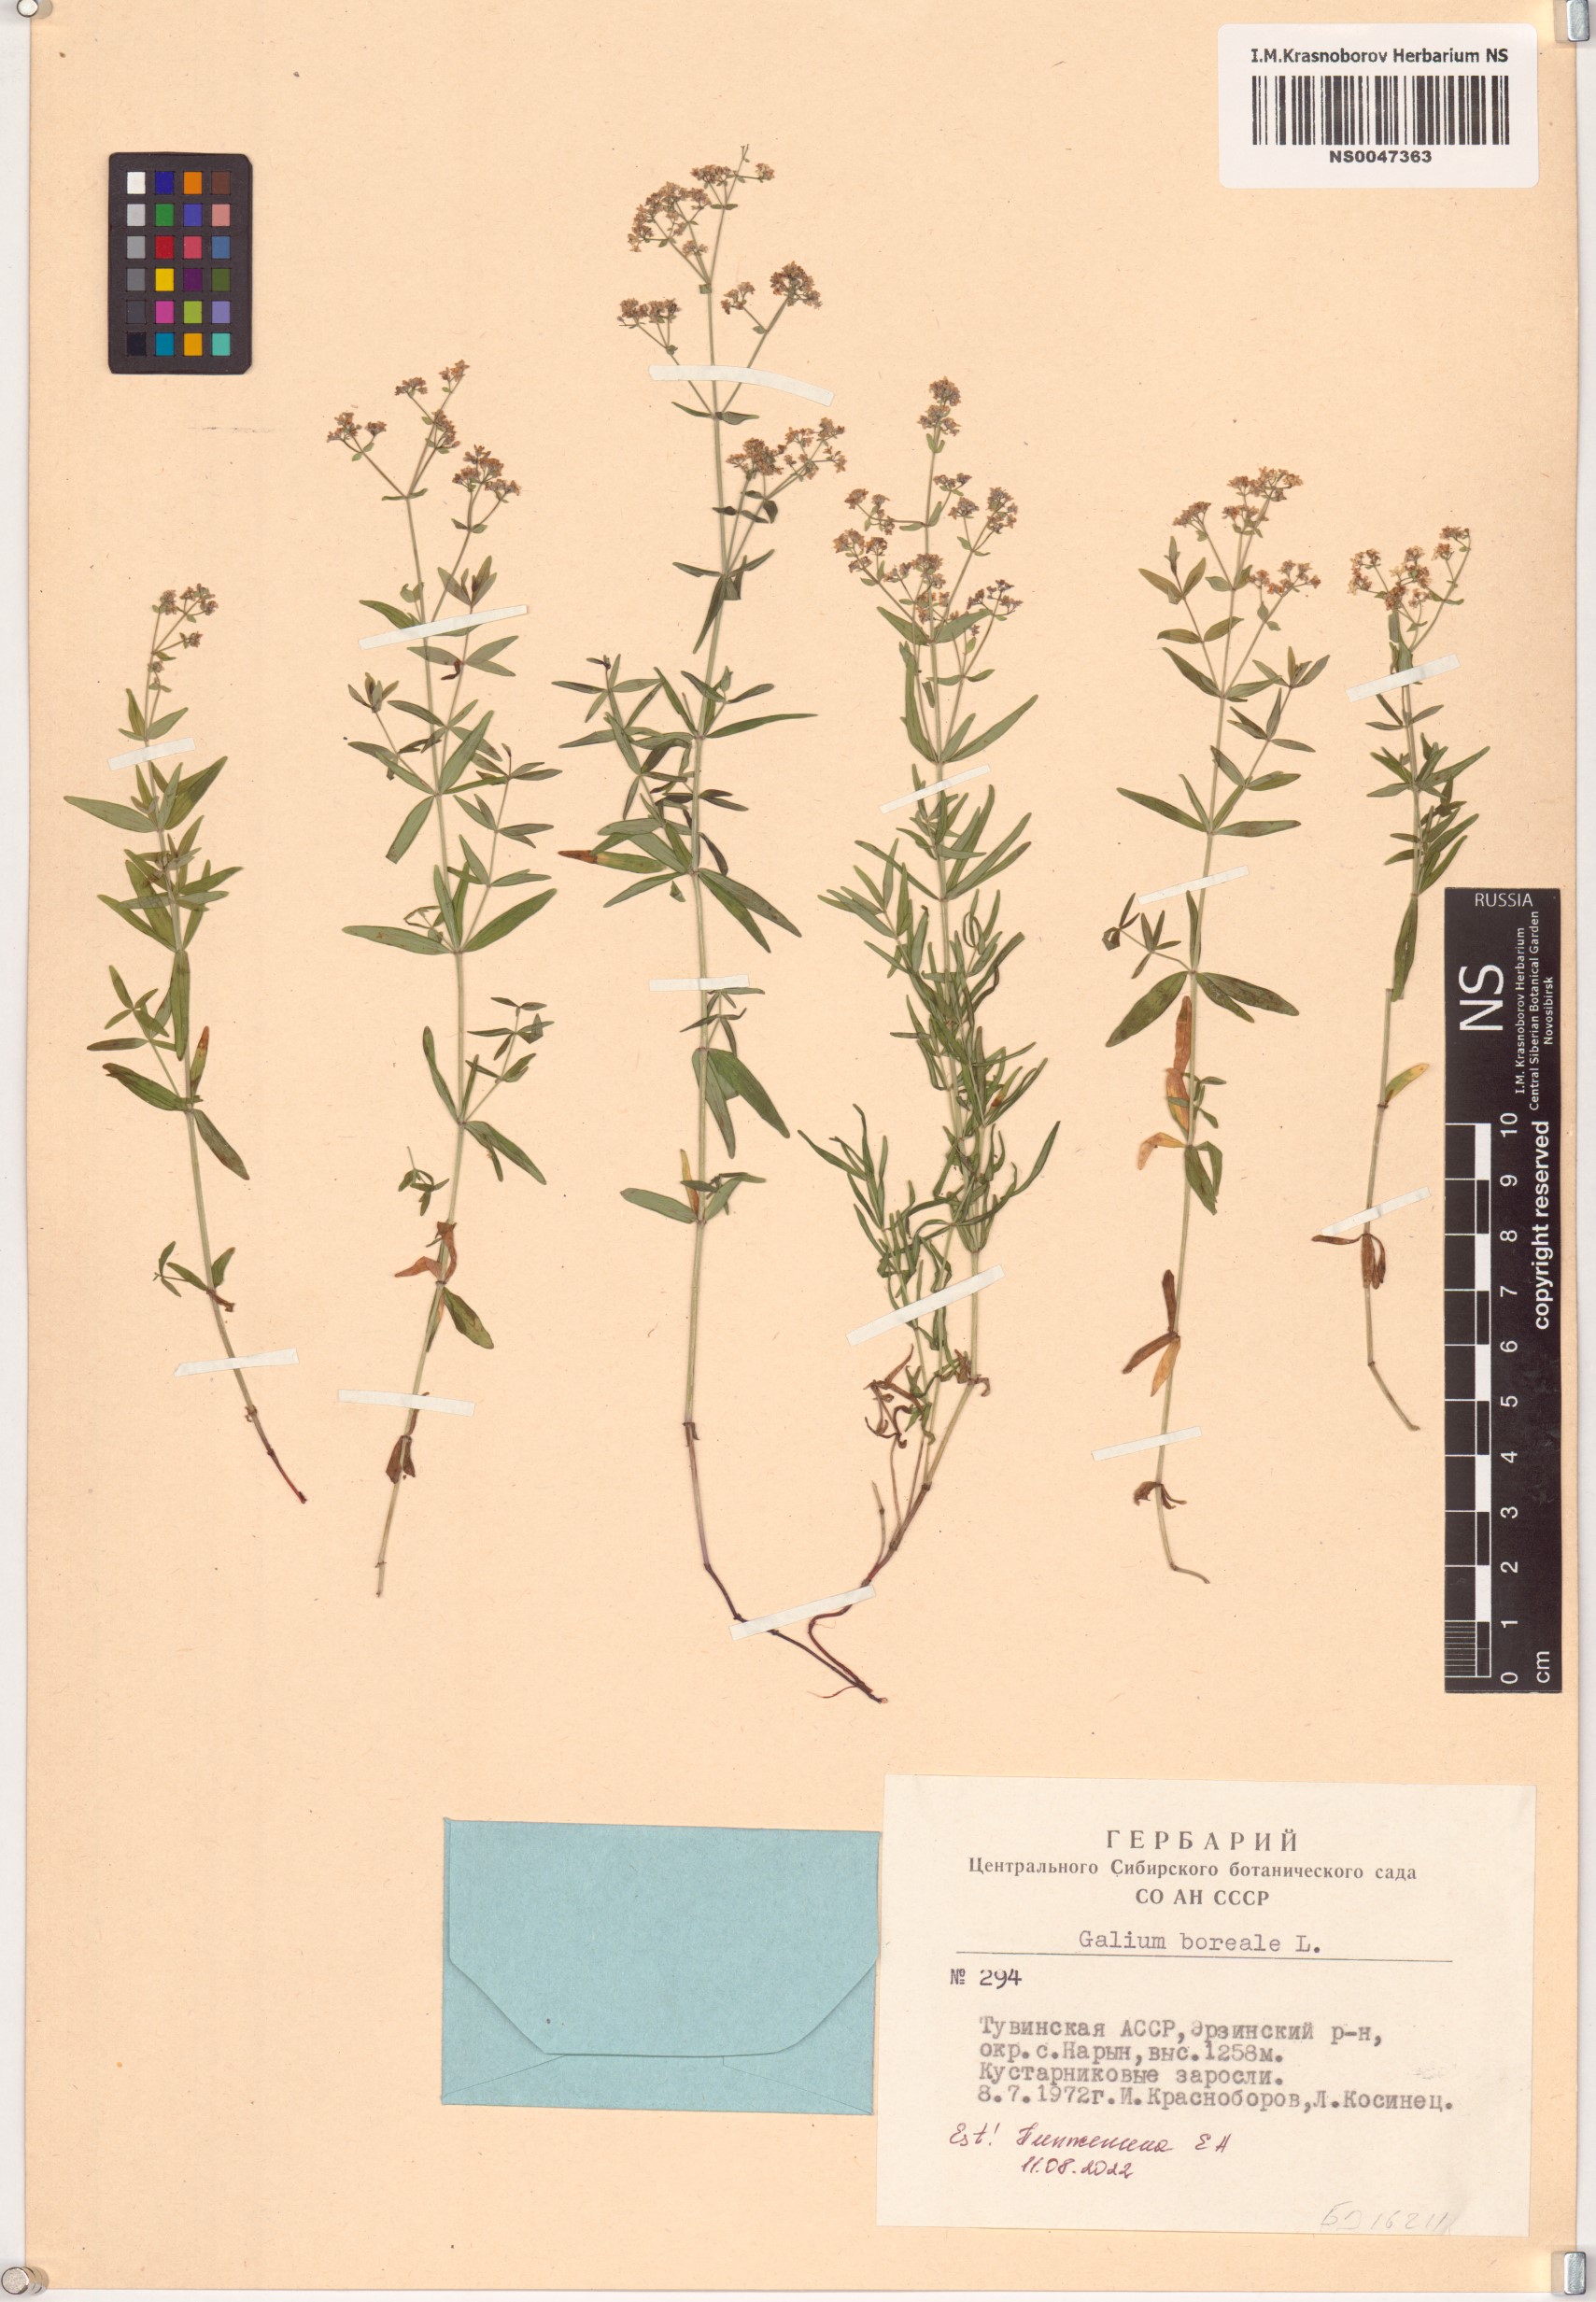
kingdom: Plantae
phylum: Tracheophyta
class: Magnoliopsida
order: Gentianales
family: Rubiaceae
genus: Galium
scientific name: Galium boreale
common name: Northern bedstraw
